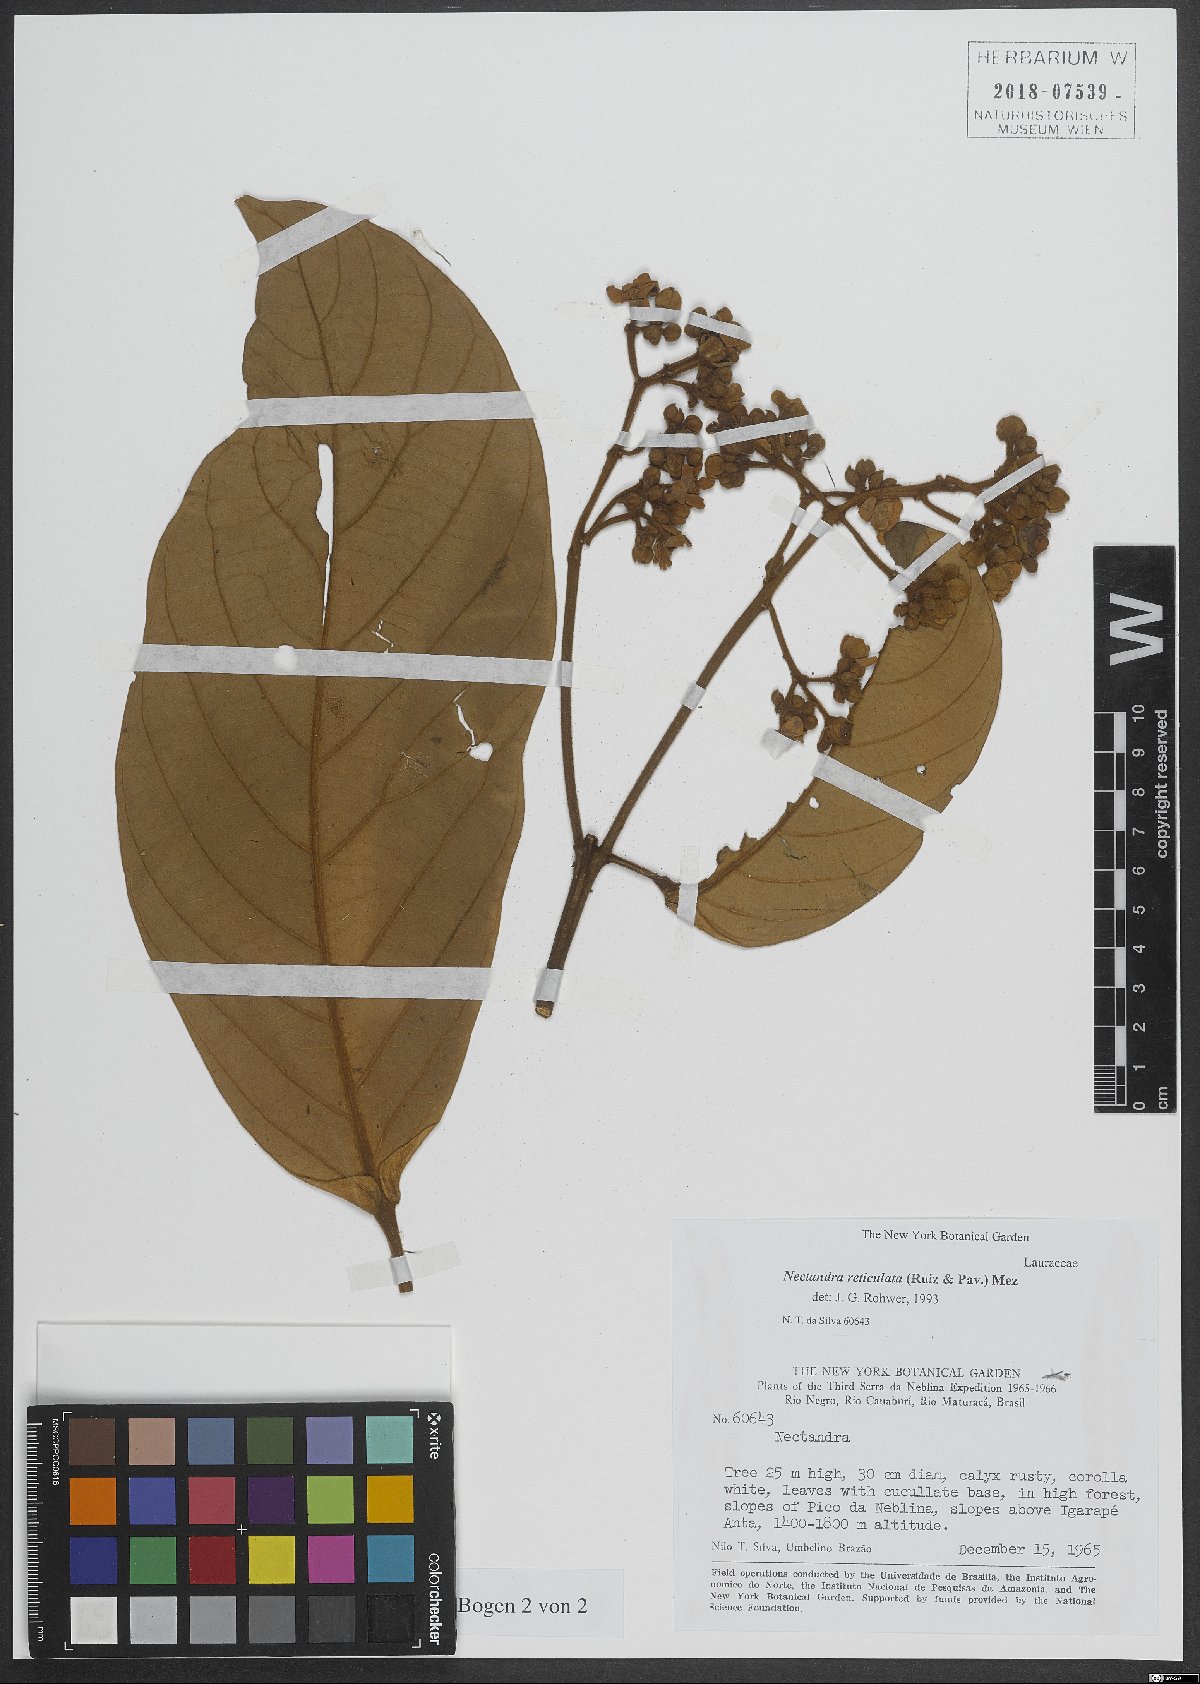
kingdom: Plantae
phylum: Tracheophyta
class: Magnoliopsida
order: Laurales
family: Lauraceae
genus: Nectandra
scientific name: Nectandra villosa
